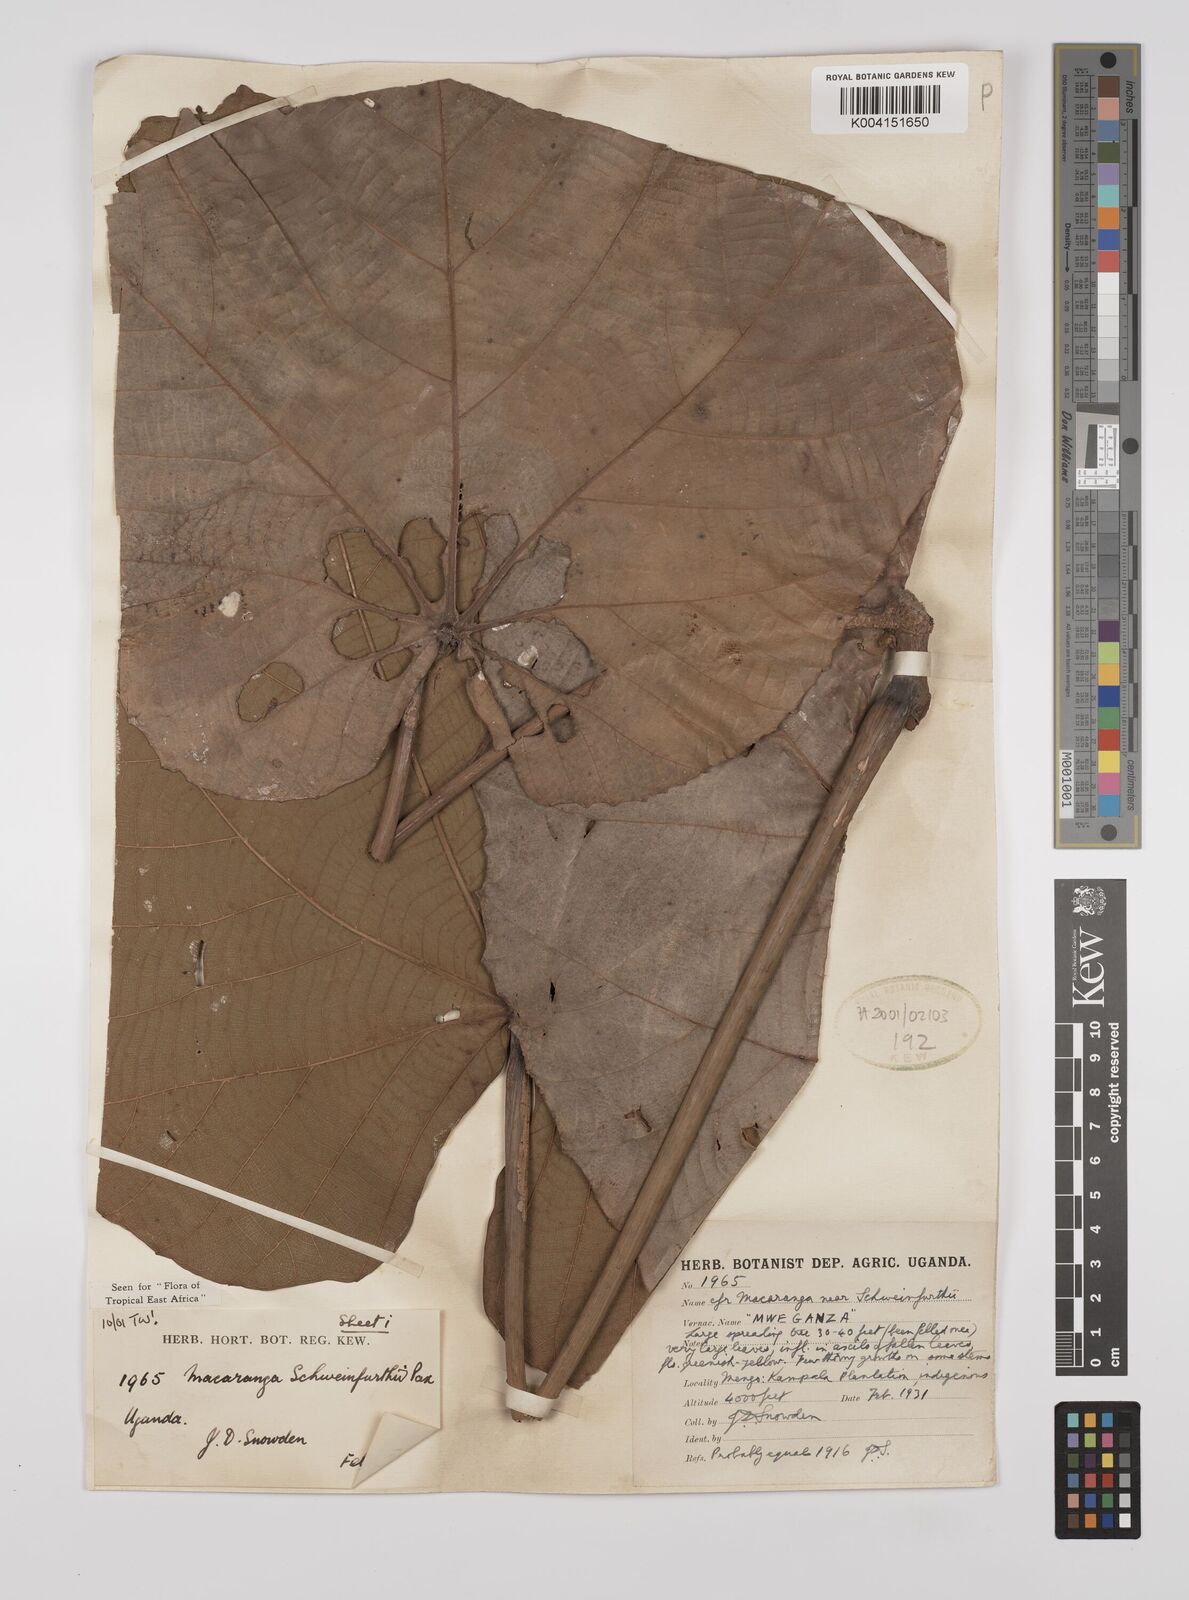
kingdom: Plantae
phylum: Tracheophyta
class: Magnoliopsida
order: Malpighiales
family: Euphorbiaceae
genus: Macaranga
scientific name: Macaranga schweinfurthii
